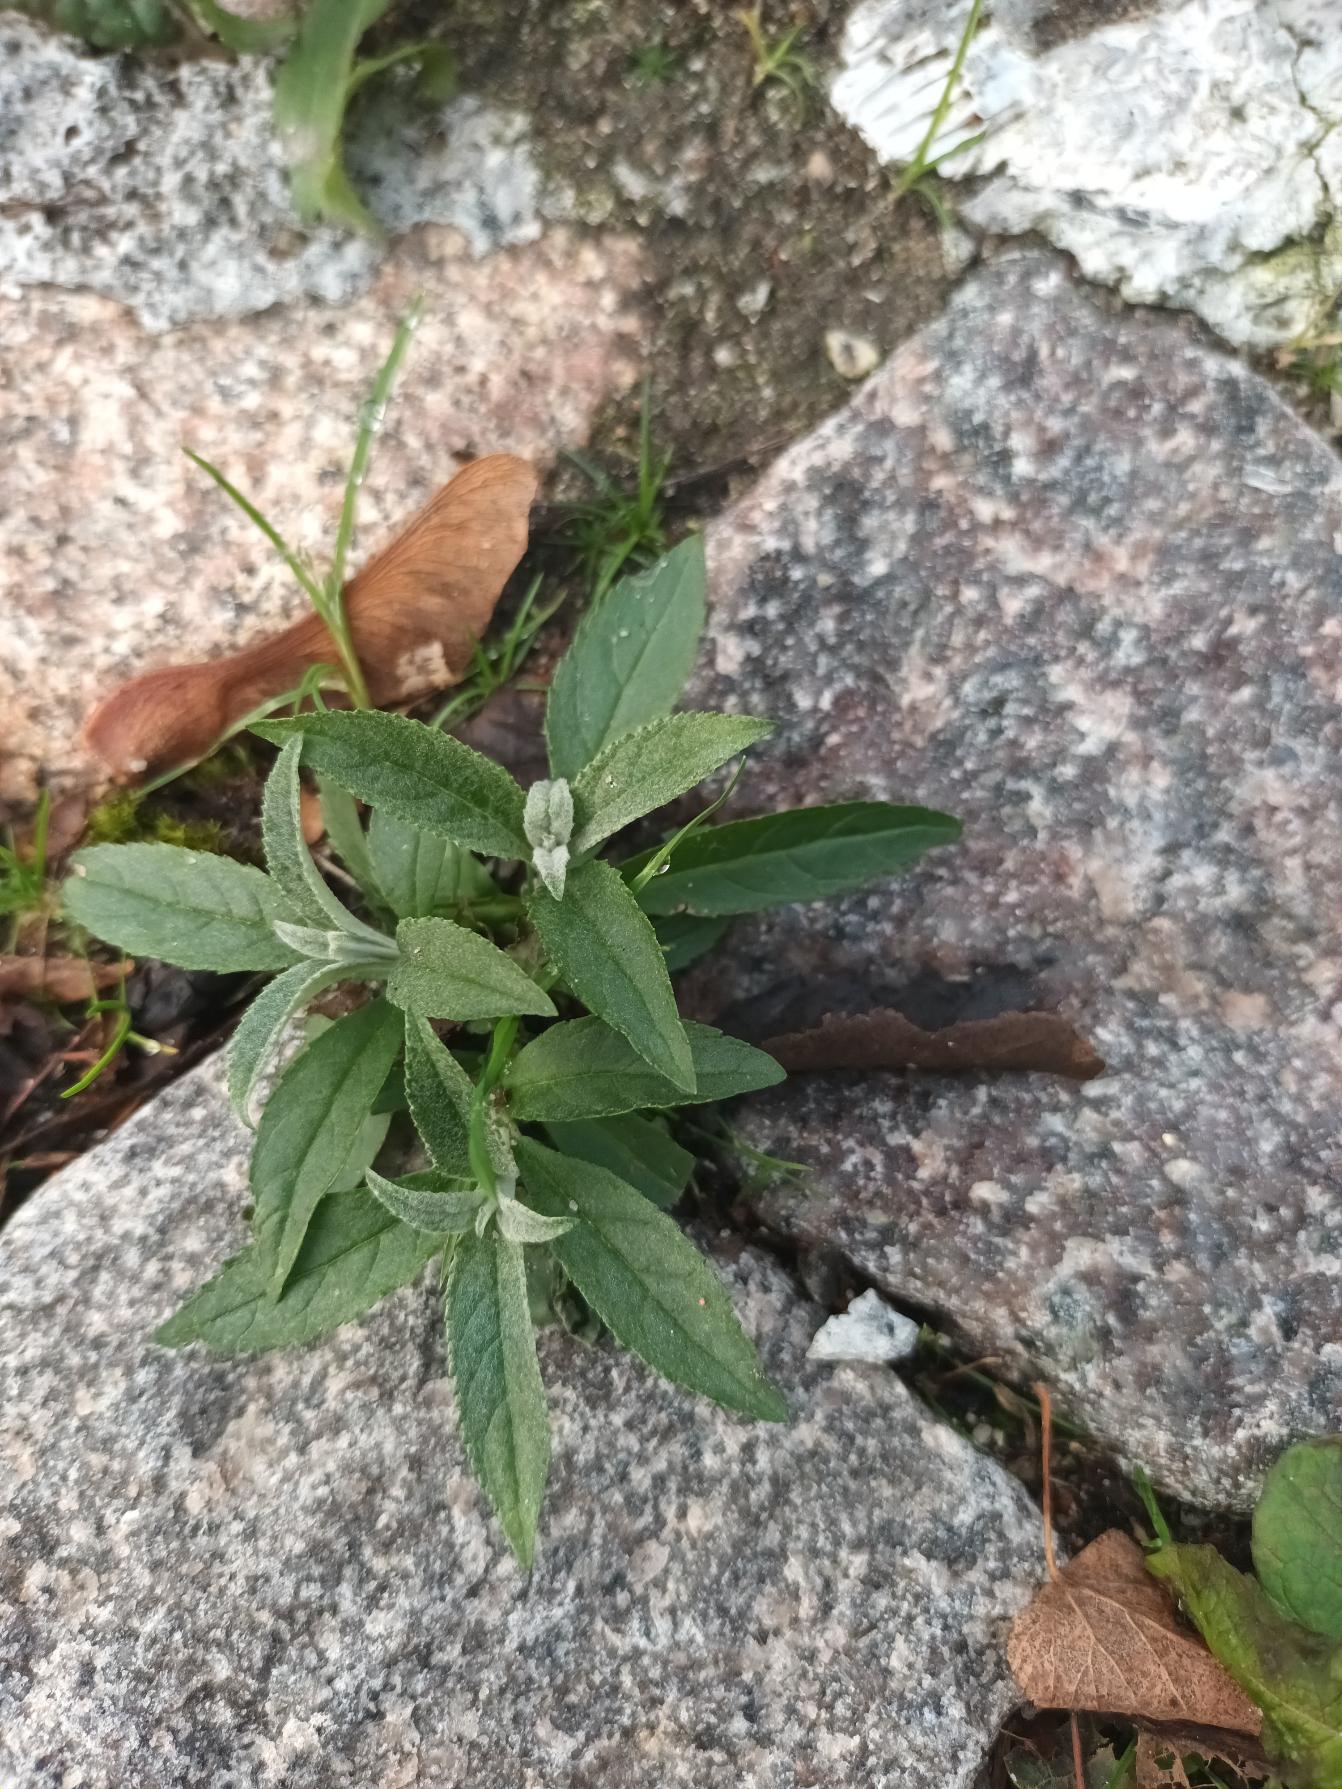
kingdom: Plantae
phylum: Tracheophyta
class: Magnoliopsida
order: Lamiales
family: Scrophulariaceae
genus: Buddleja
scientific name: Buddleja davidii
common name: Sommerfuglebusk
